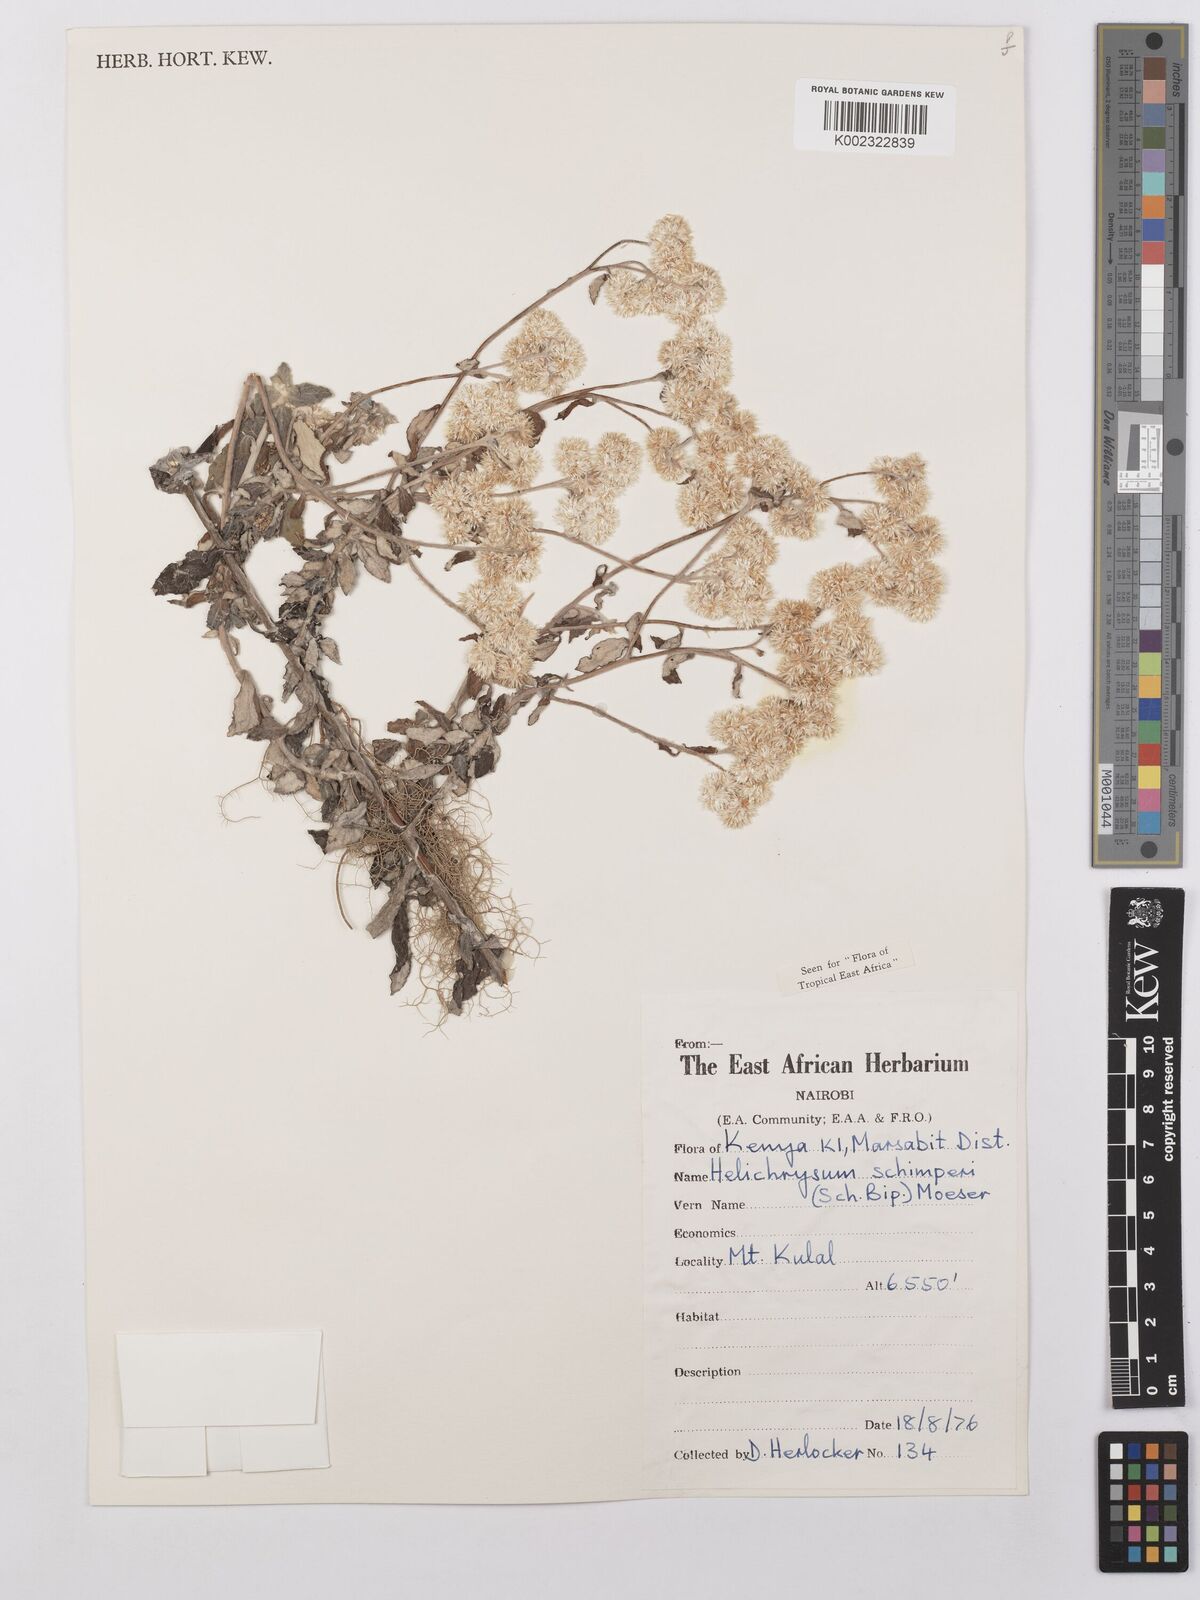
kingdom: Plantae
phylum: Tracheophyta
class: Magnoliopsida
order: Asterales
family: Asteraceae
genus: Helichrysum
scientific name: Helichrysum schimperi
